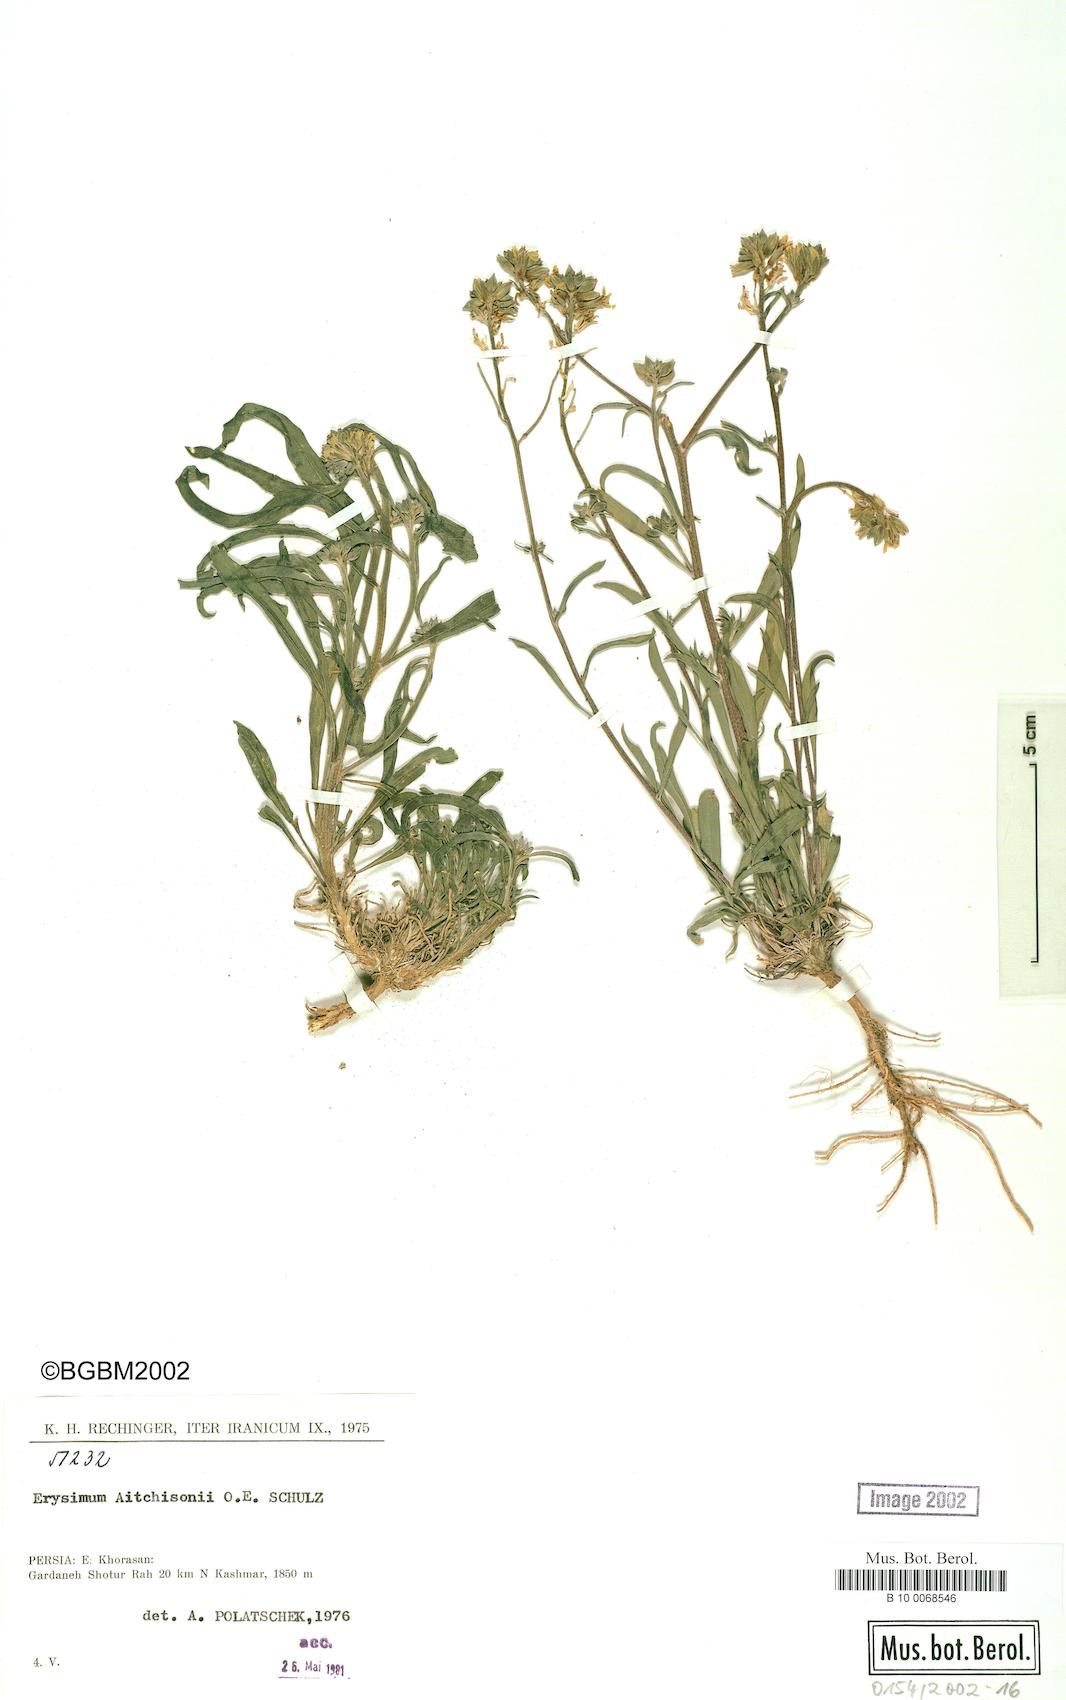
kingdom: Plantae
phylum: Tracheophyta
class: Magnoliopsida
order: Brassicales
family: Brassicaceae
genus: Erysimum
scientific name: Erysimum aitchisonii
